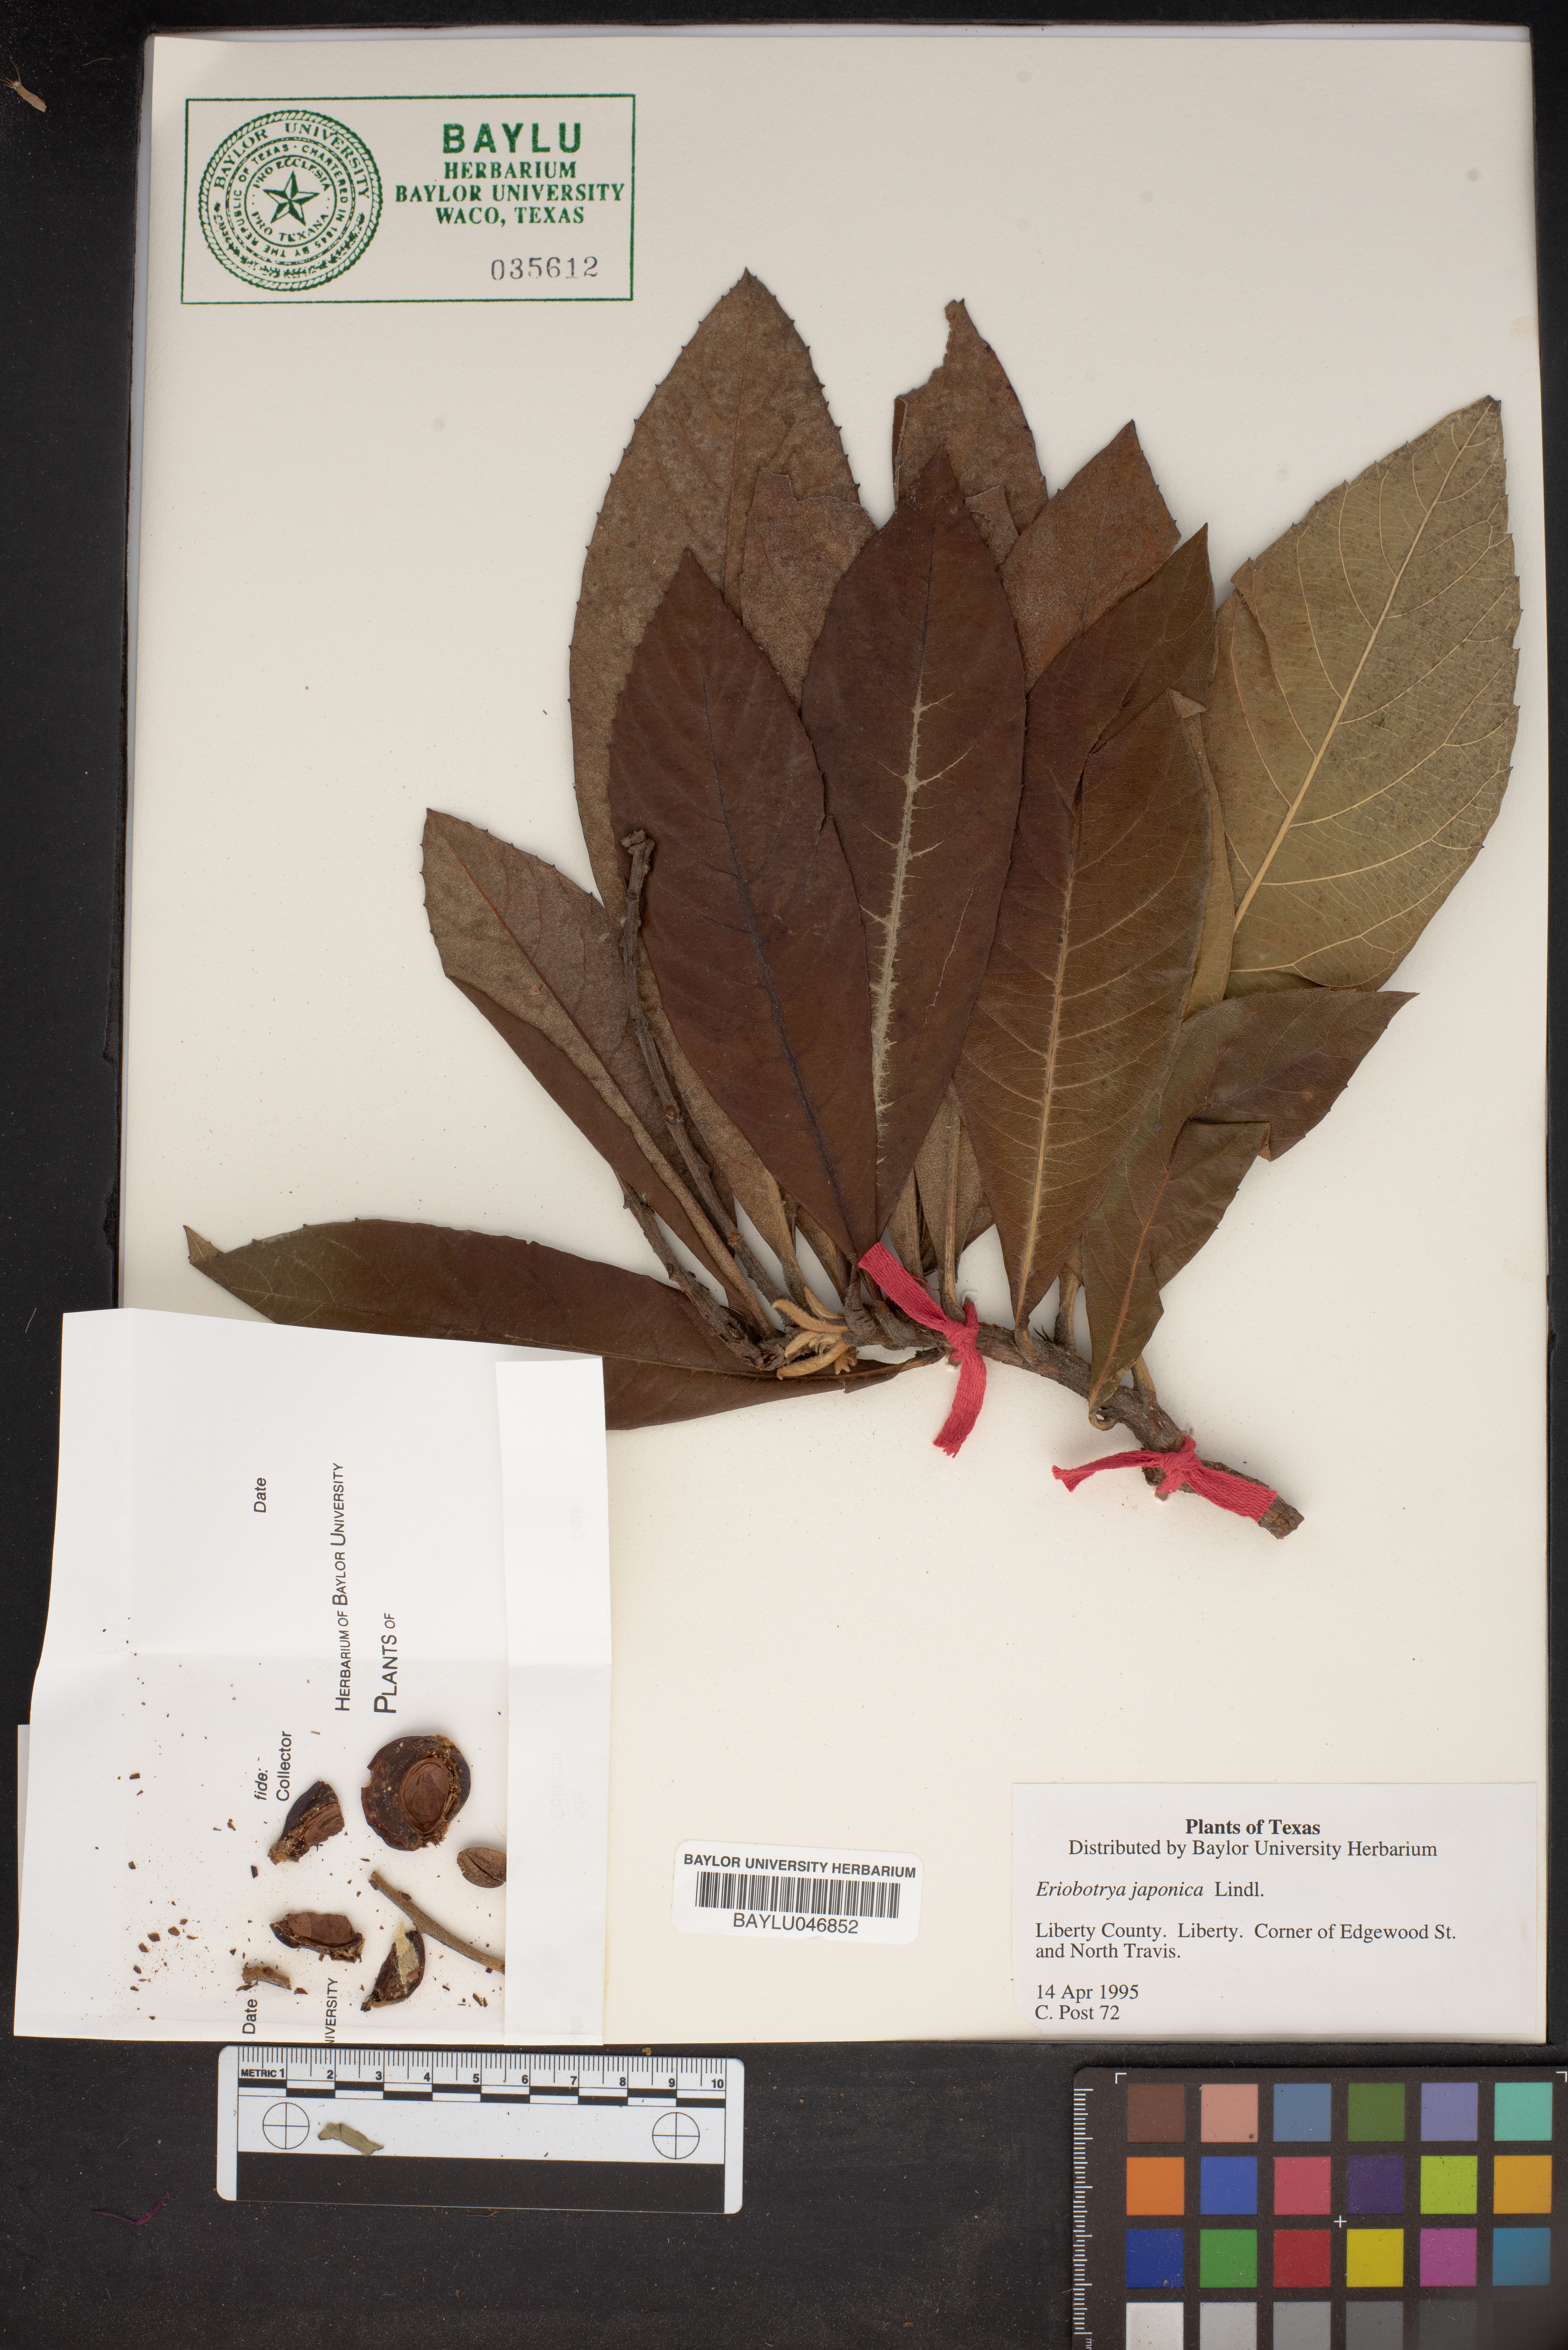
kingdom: Plantae
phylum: Tracheophyta
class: Magnoliopsida
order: Rosales
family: Rosaceae
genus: Rhaphiolepis
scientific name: Rhaphiolepis bibas
